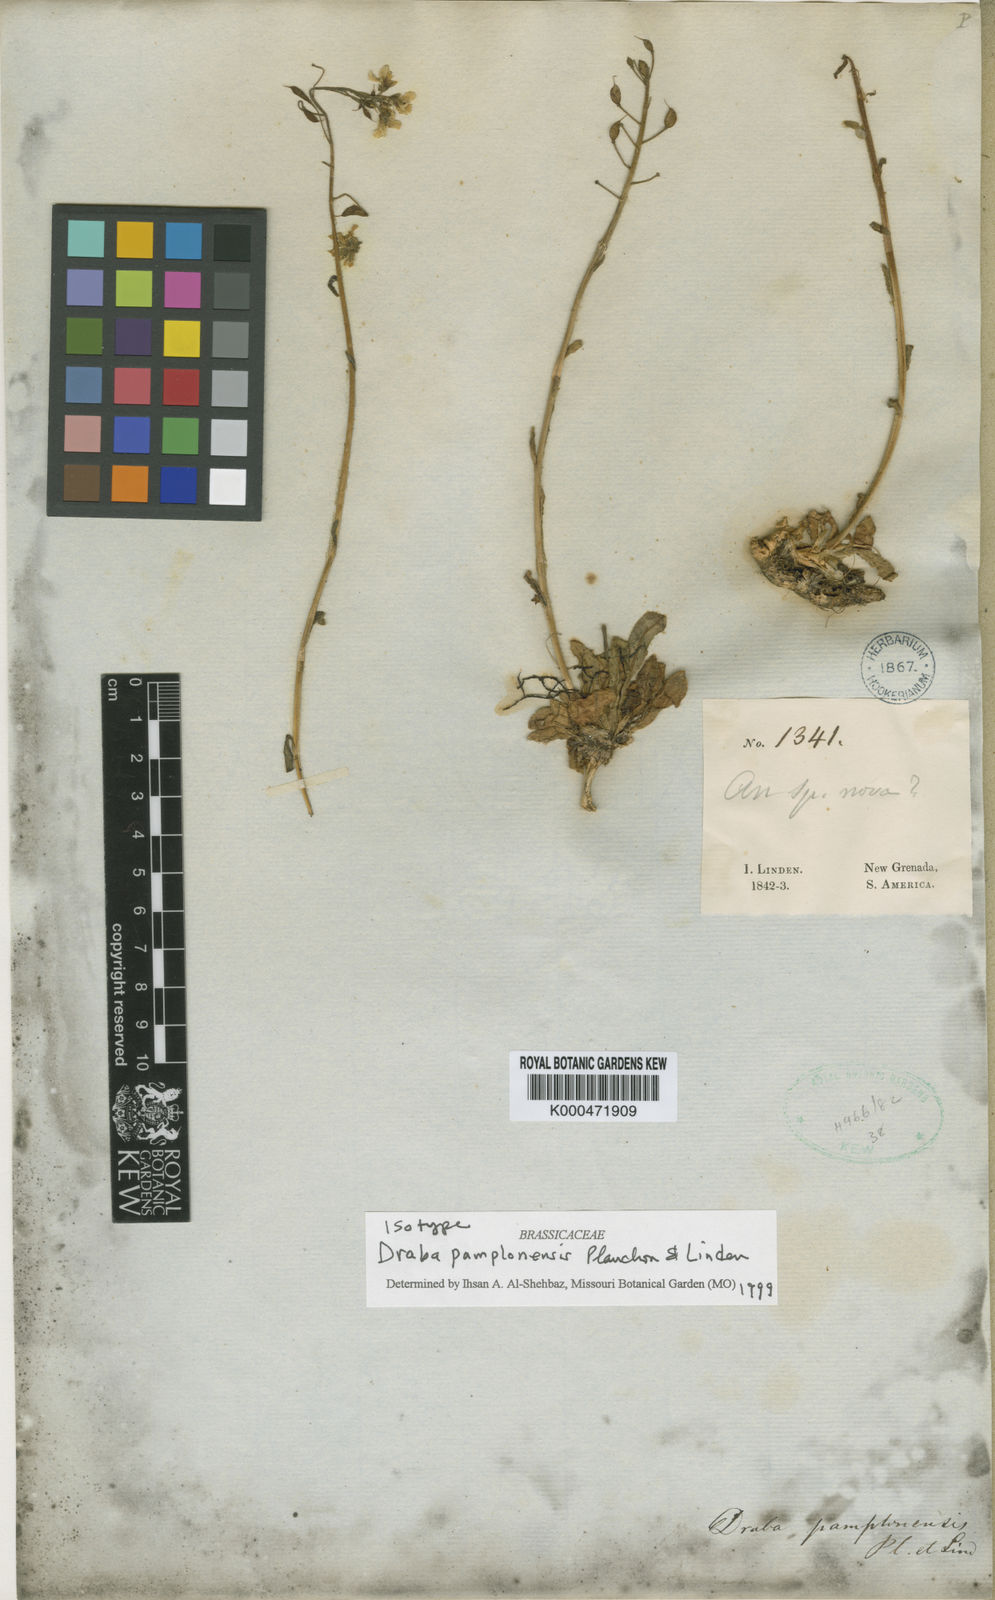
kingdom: Plantae
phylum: Tracheophyta
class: Magnoliopsida
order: Brassicales
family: Brassicaceae
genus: Draba
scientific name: Draba pamplonensis
